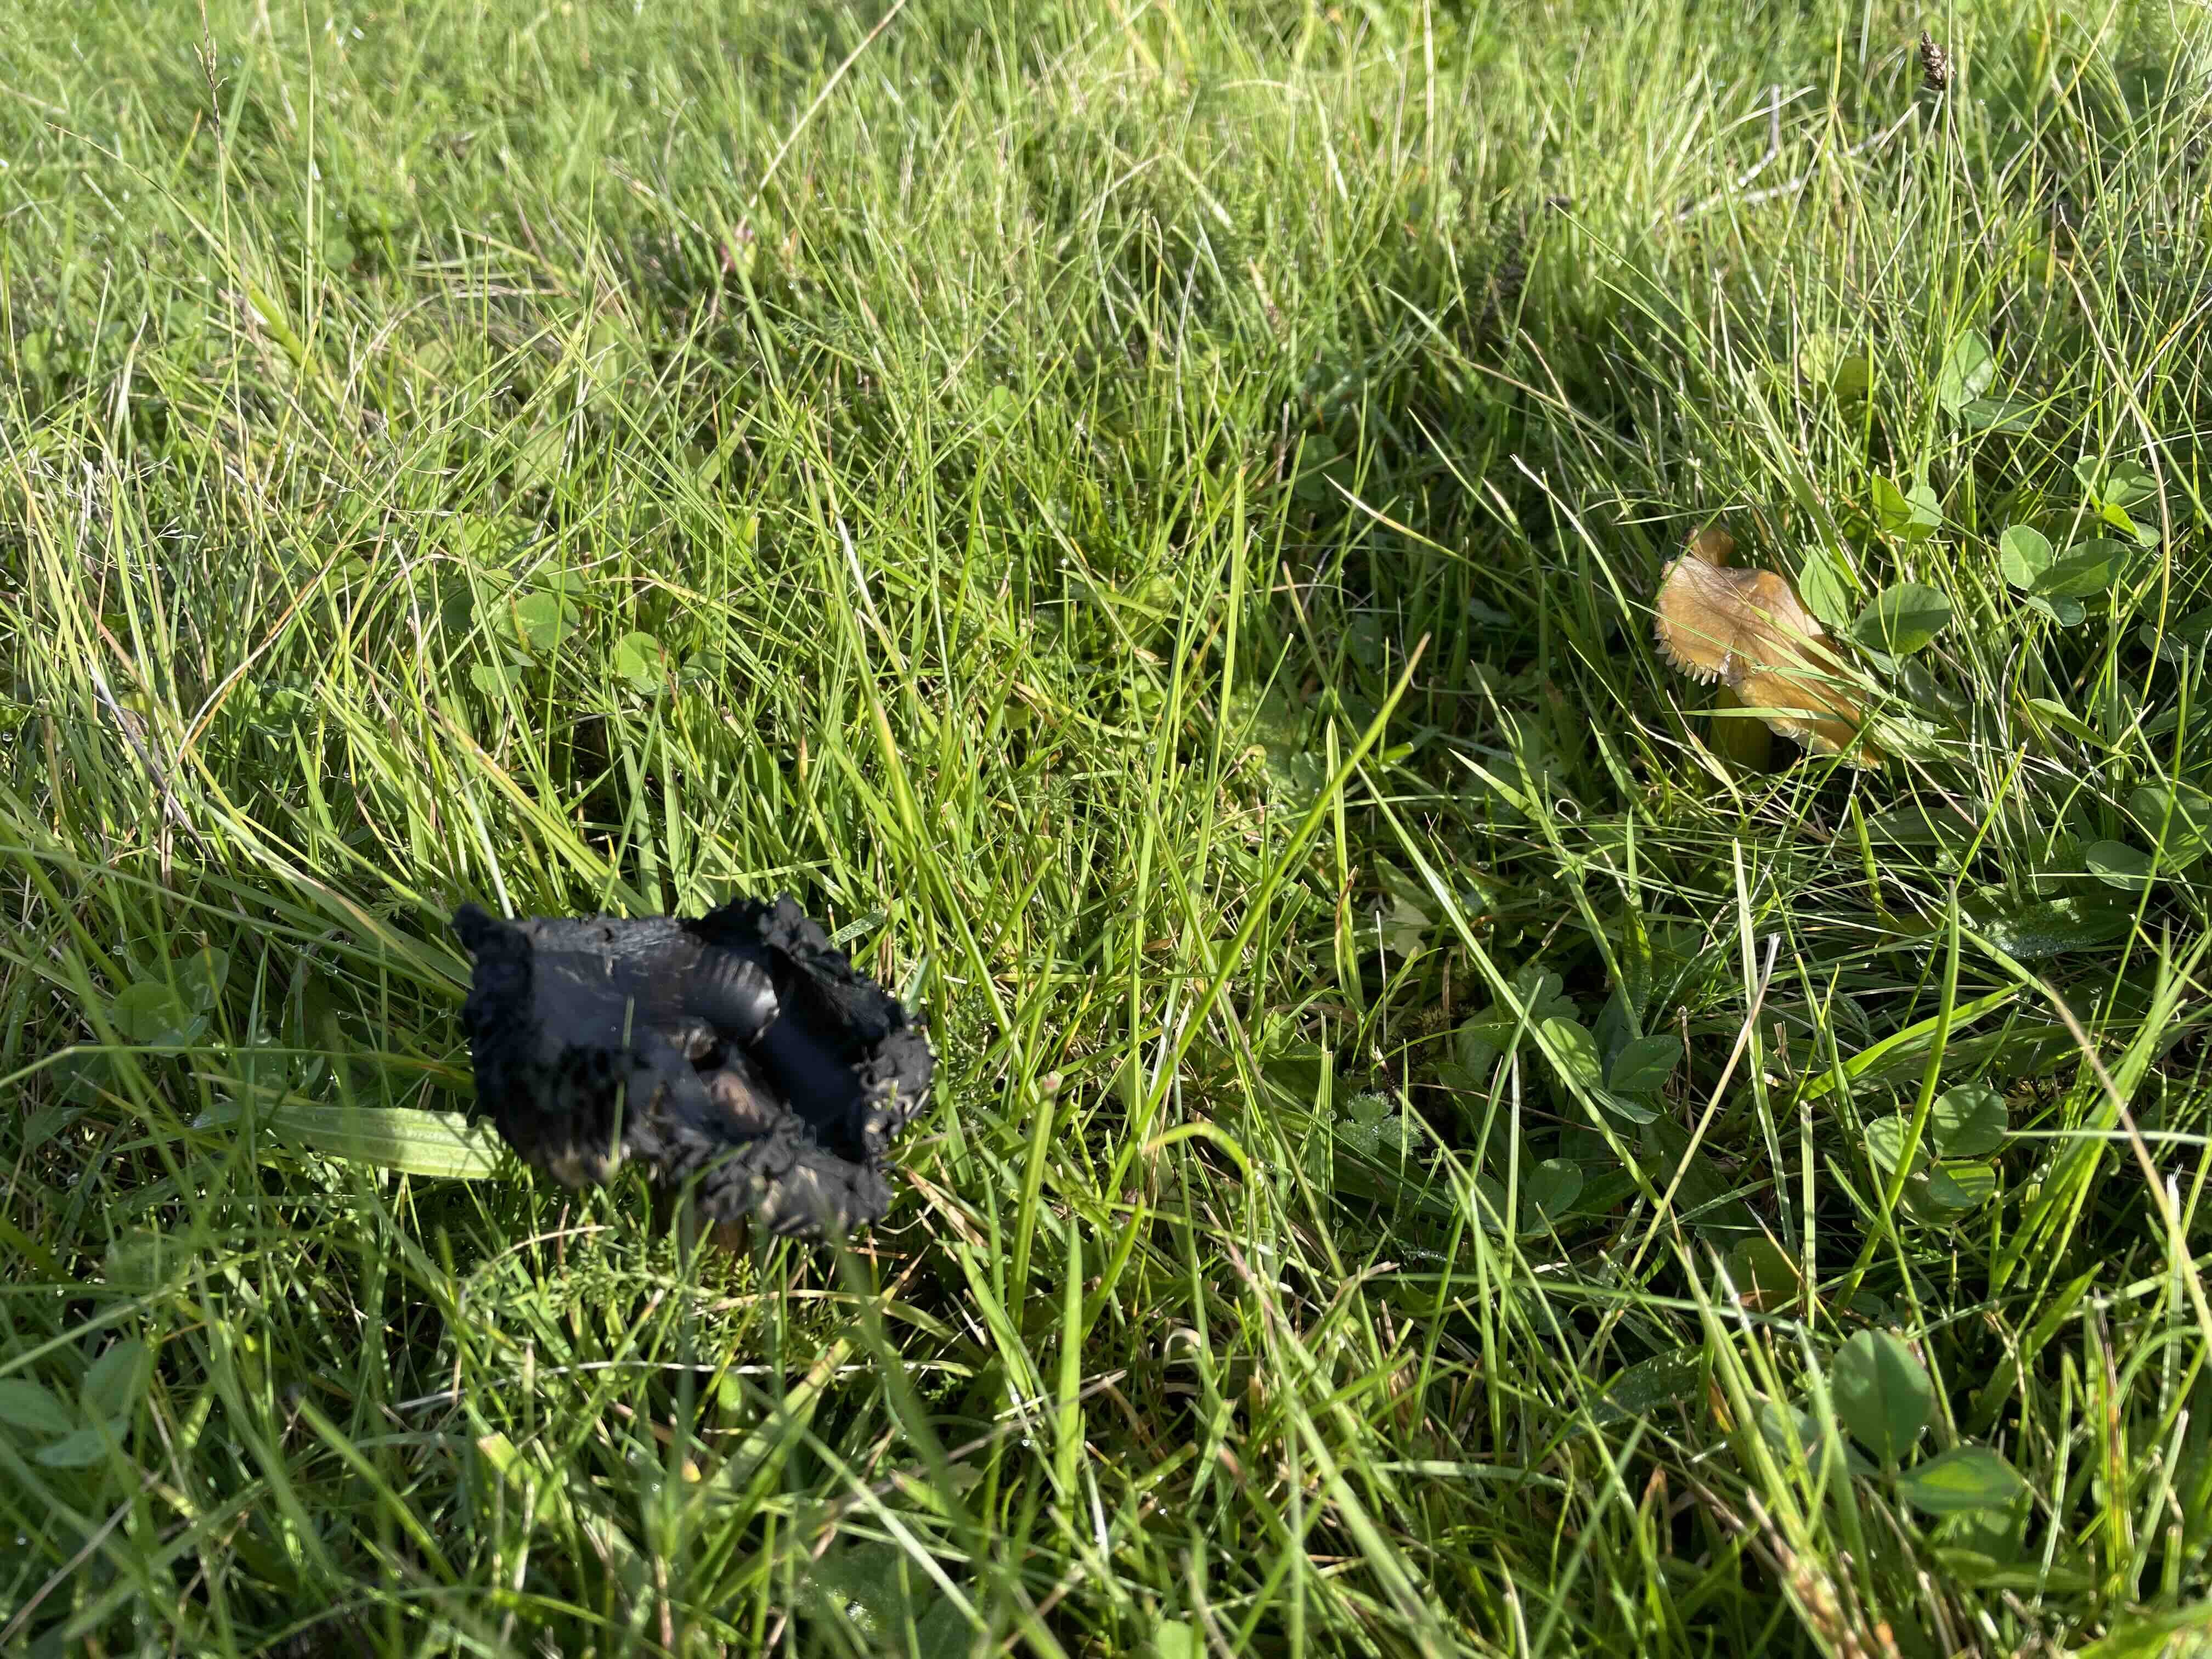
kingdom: Fungi
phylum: Basidiomycota
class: Agaricomycetes
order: Agaricales
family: Hygrophoraceae
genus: Hygrocybe
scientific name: Hygrocybe conica
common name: kegle-vokshat
